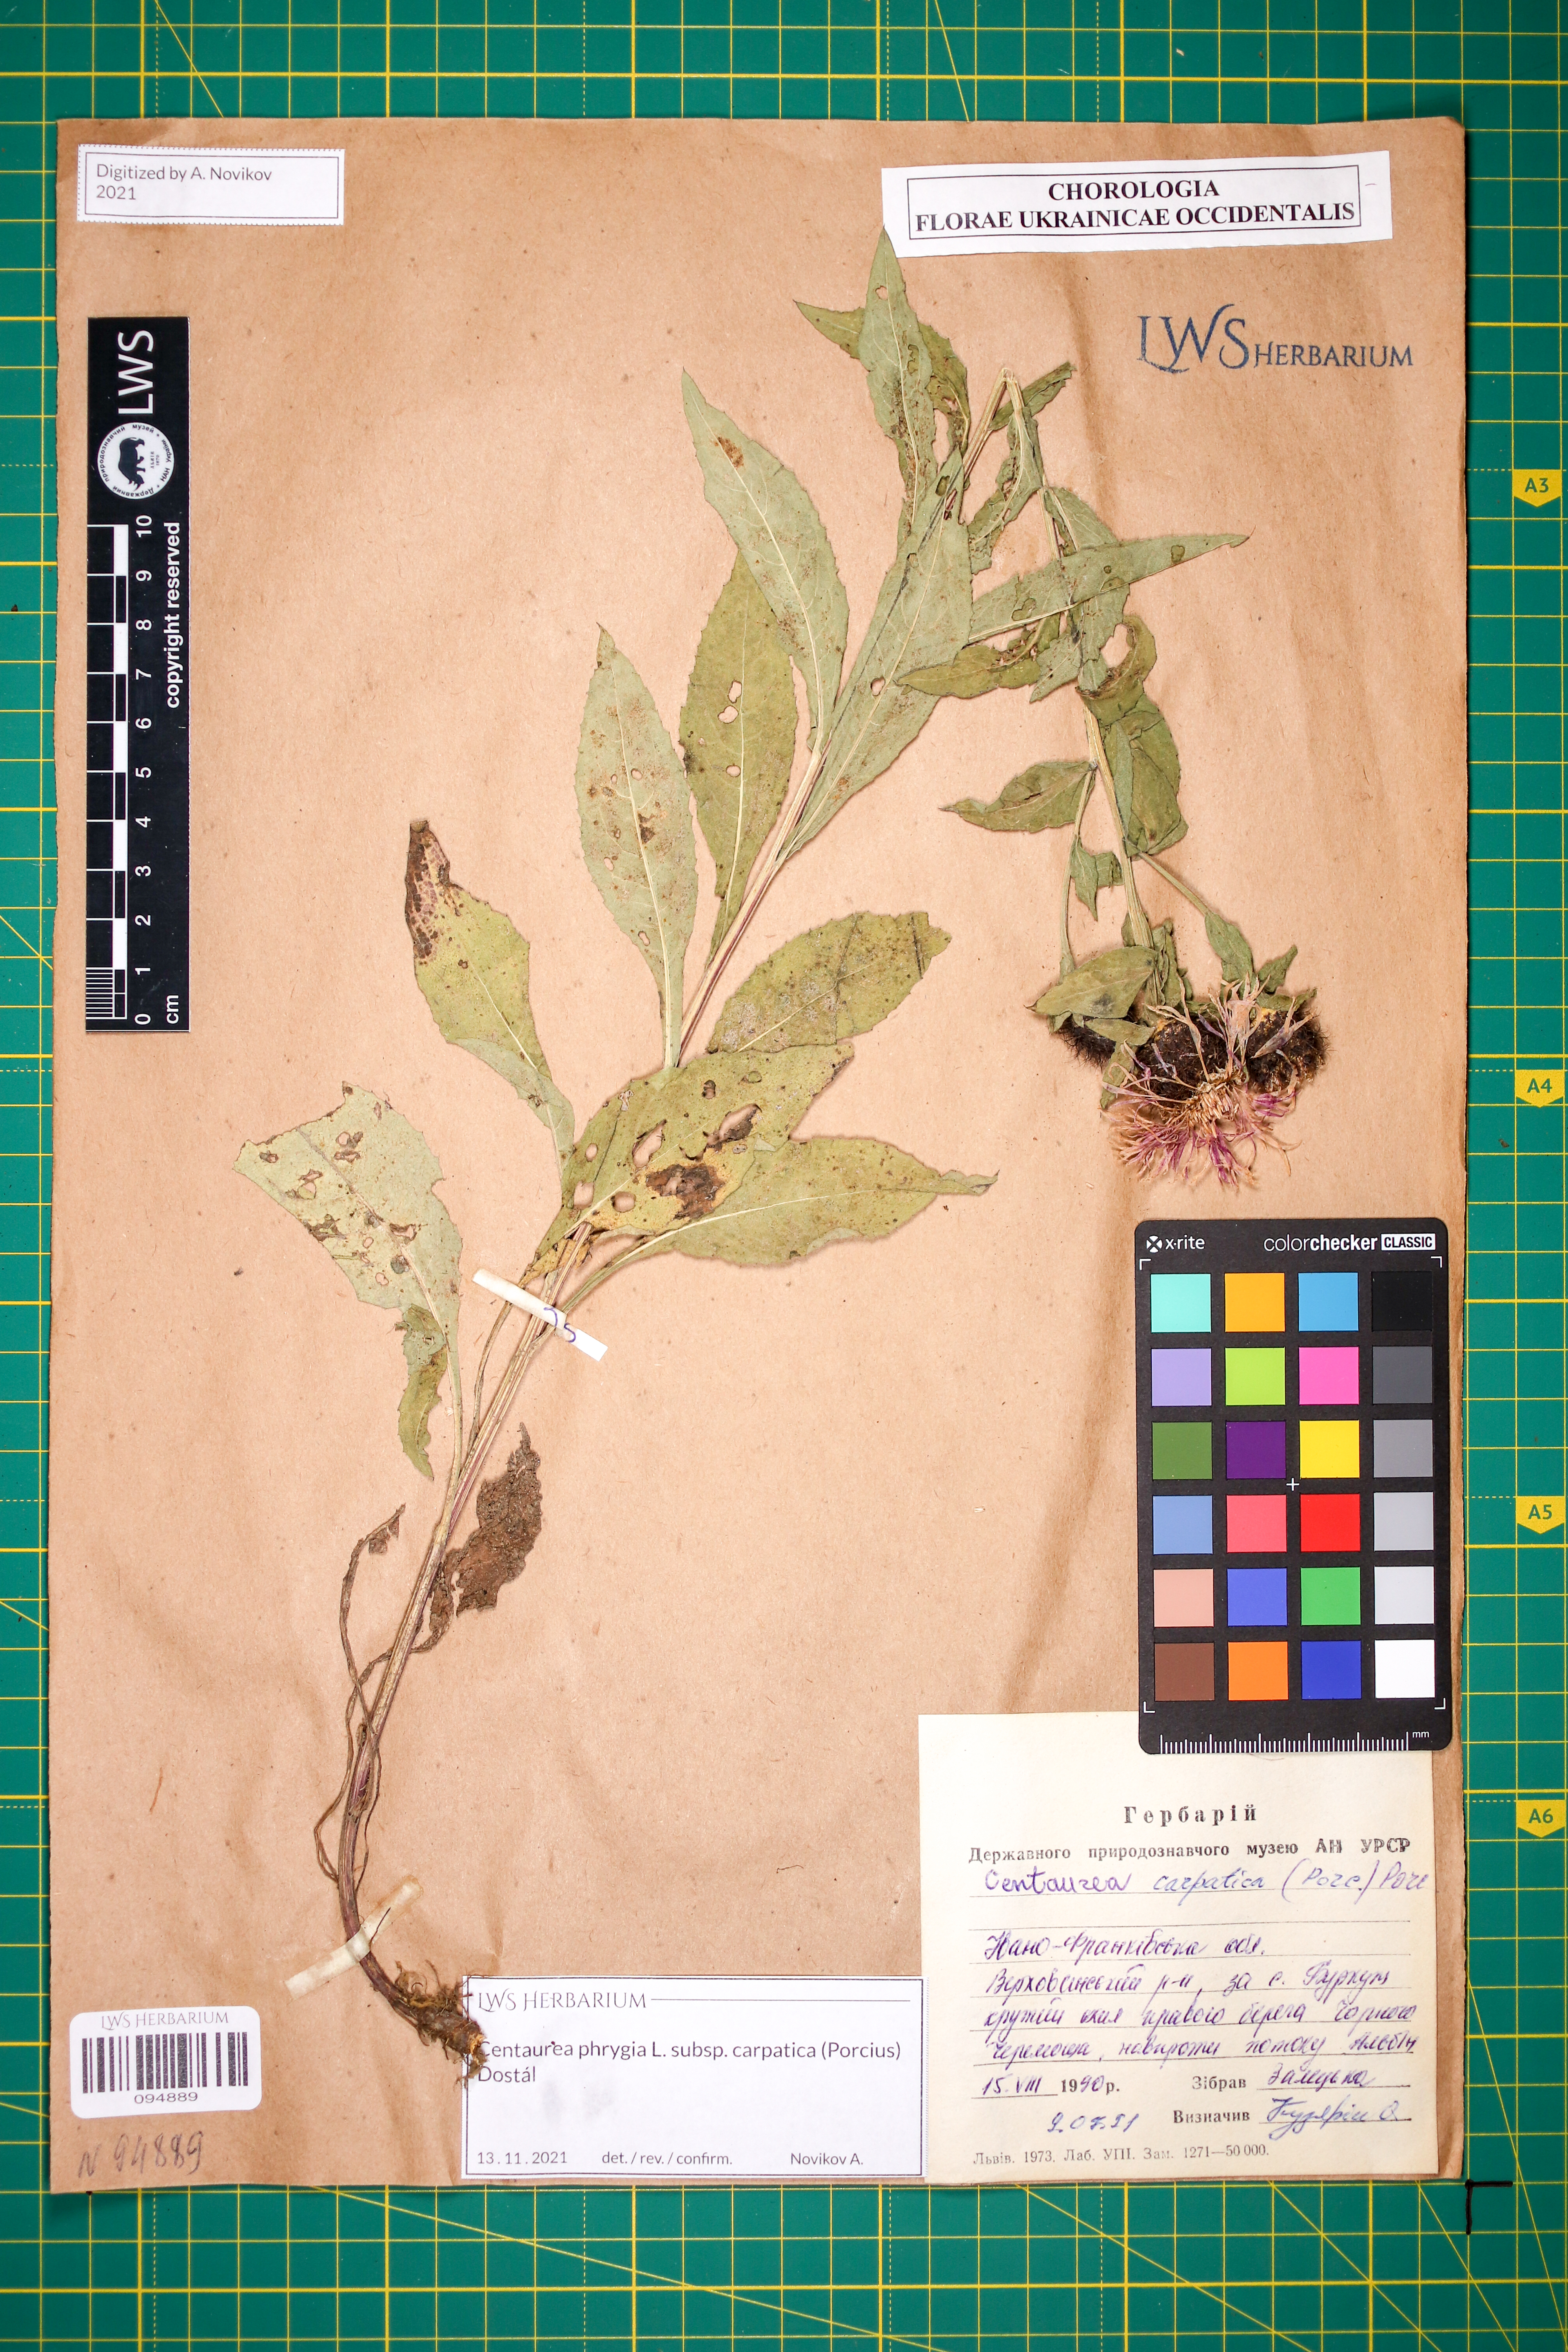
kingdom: Plantae
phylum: Tracheophyta
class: Magnoliopsida
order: Asterales
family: Asteraceae
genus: Centaurea
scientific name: Centaurea phrygia
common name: Wig knapweed
